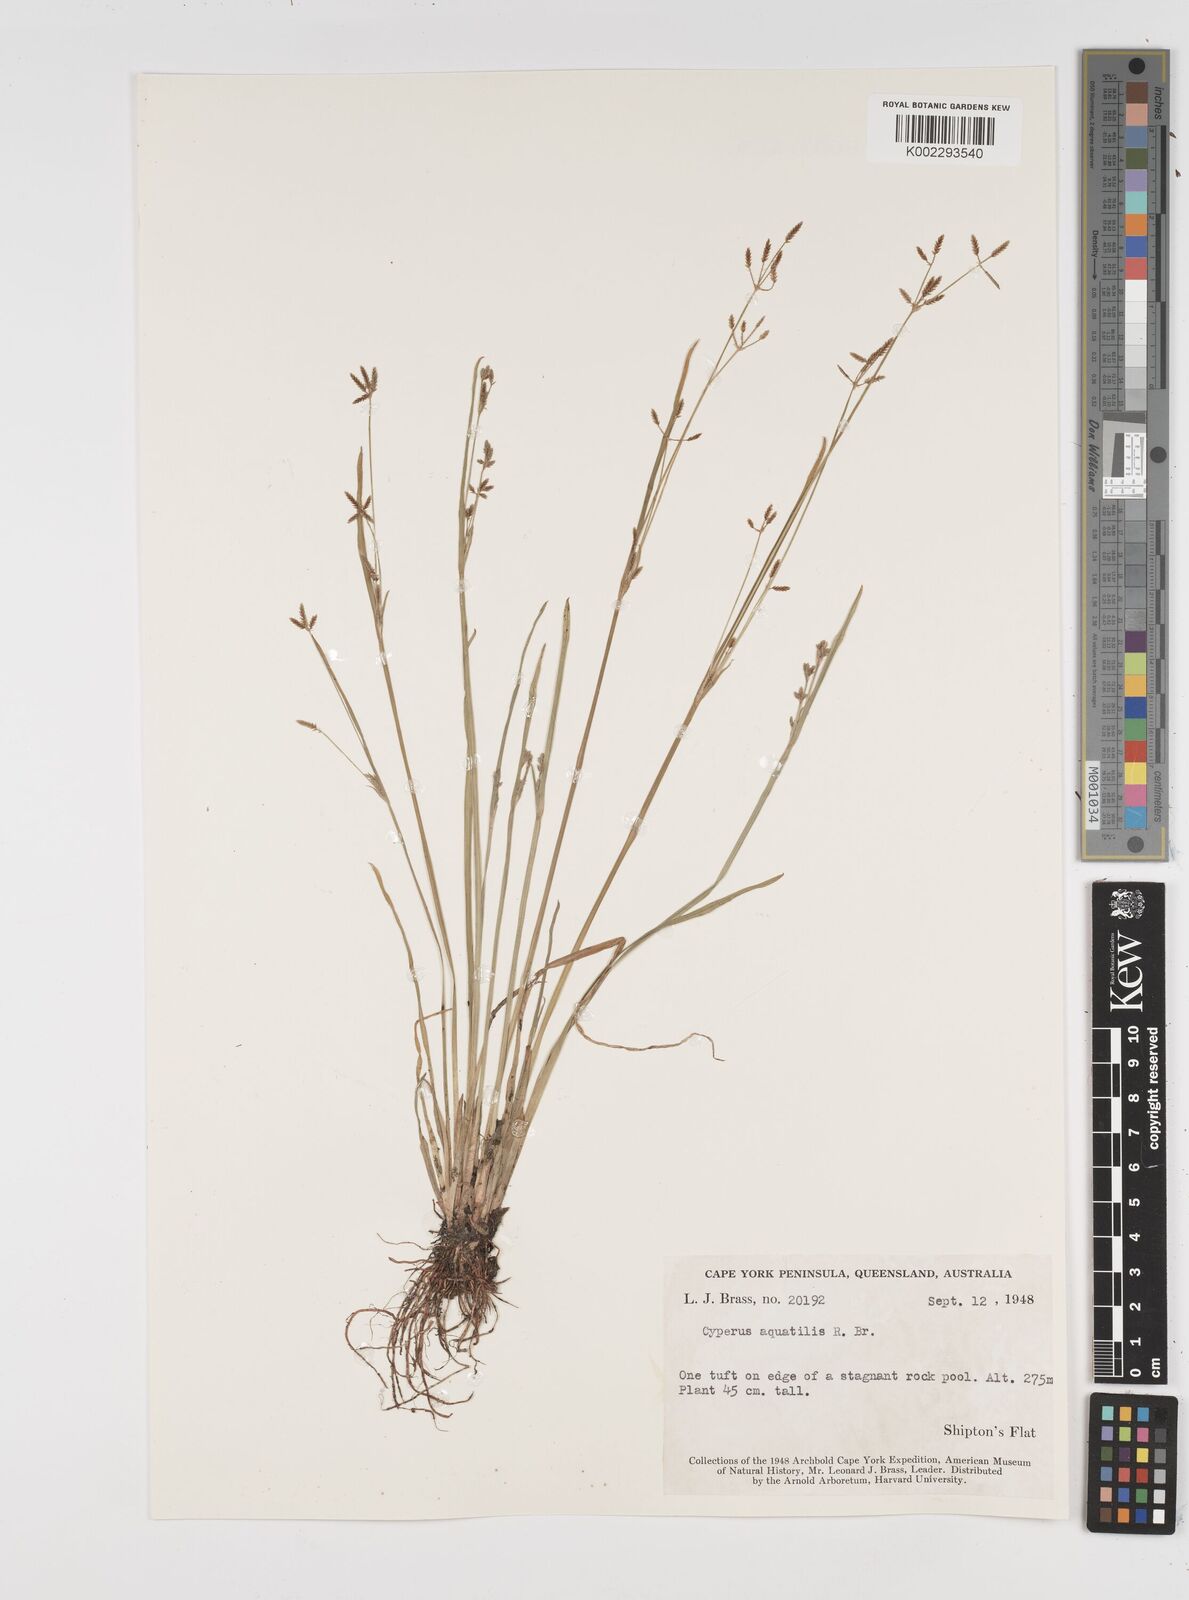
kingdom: Plantae
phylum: Tracheophyta
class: Liliopsida
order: Poales
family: Cyperaceae
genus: Cyperus
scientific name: Cyperus aquatilis
